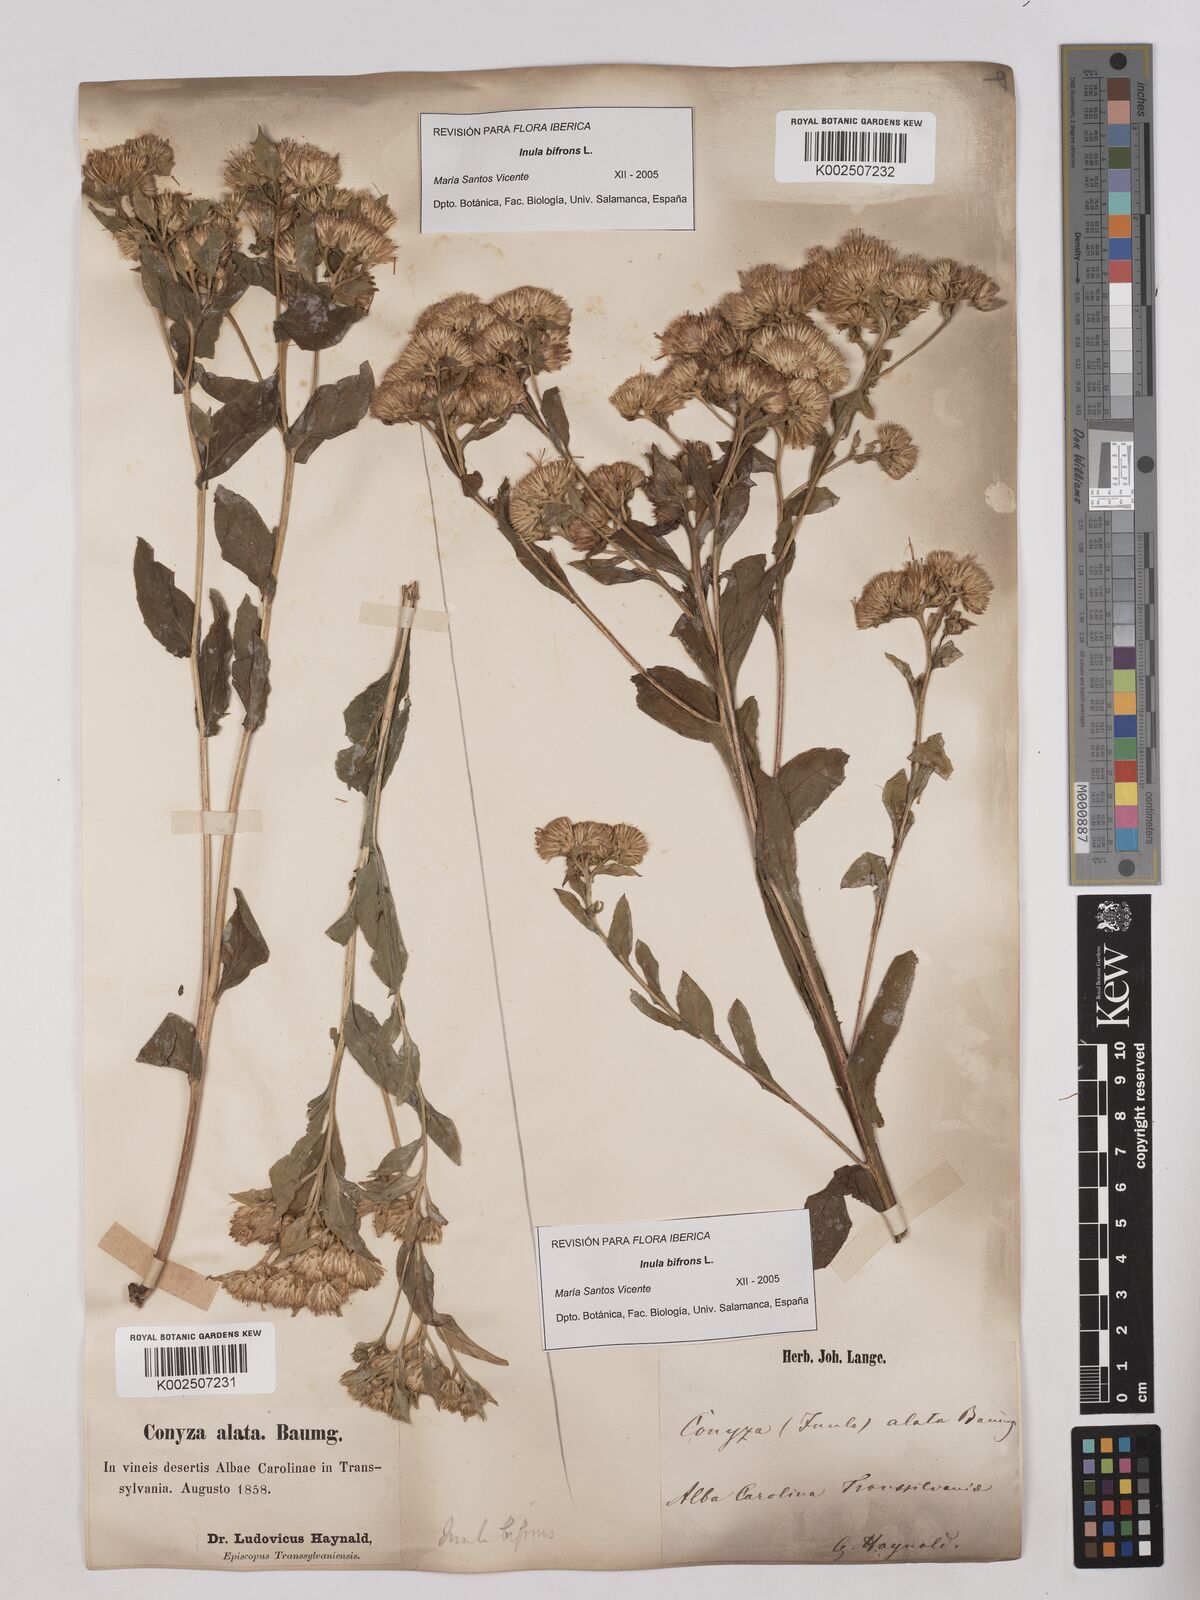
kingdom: Plantae
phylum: Tracheophyta
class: Magnoliopsida
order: Asterales
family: Asteraceae
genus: Pentanema
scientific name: Pentanema bifrons
